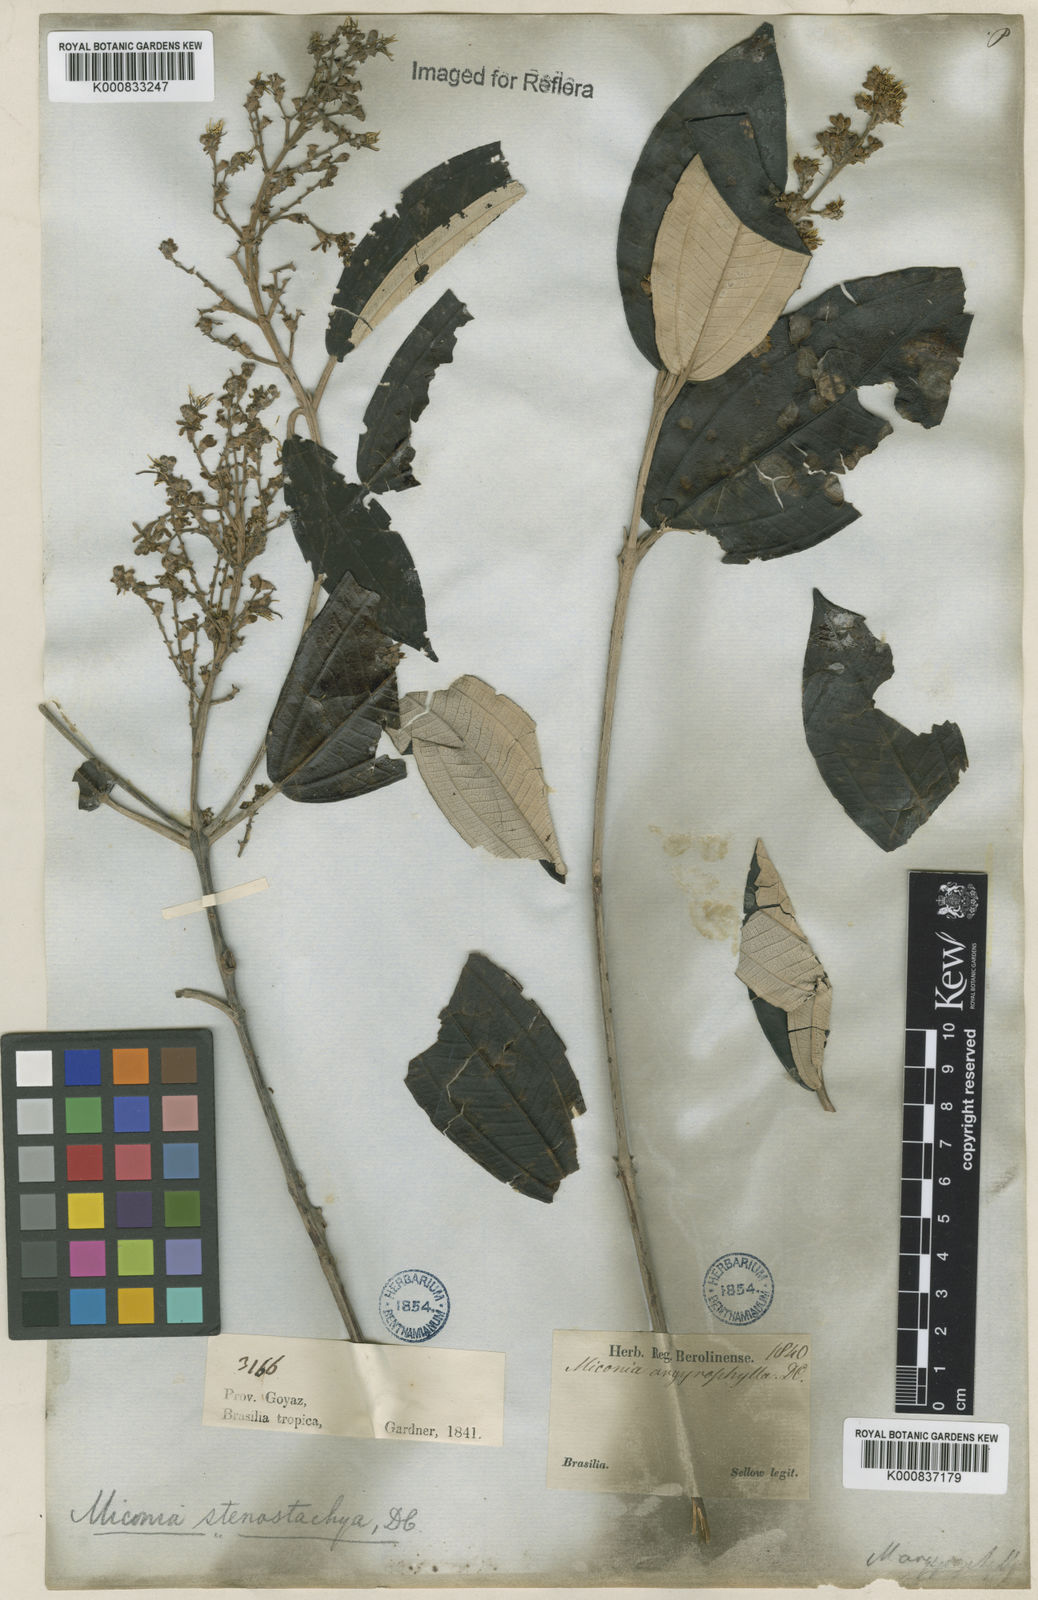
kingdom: Plantae
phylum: Tracheophyta
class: Magnoliopsida
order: Myrtales
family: Melastomataceae
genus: Miconia
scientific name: Miconia stenostachya
